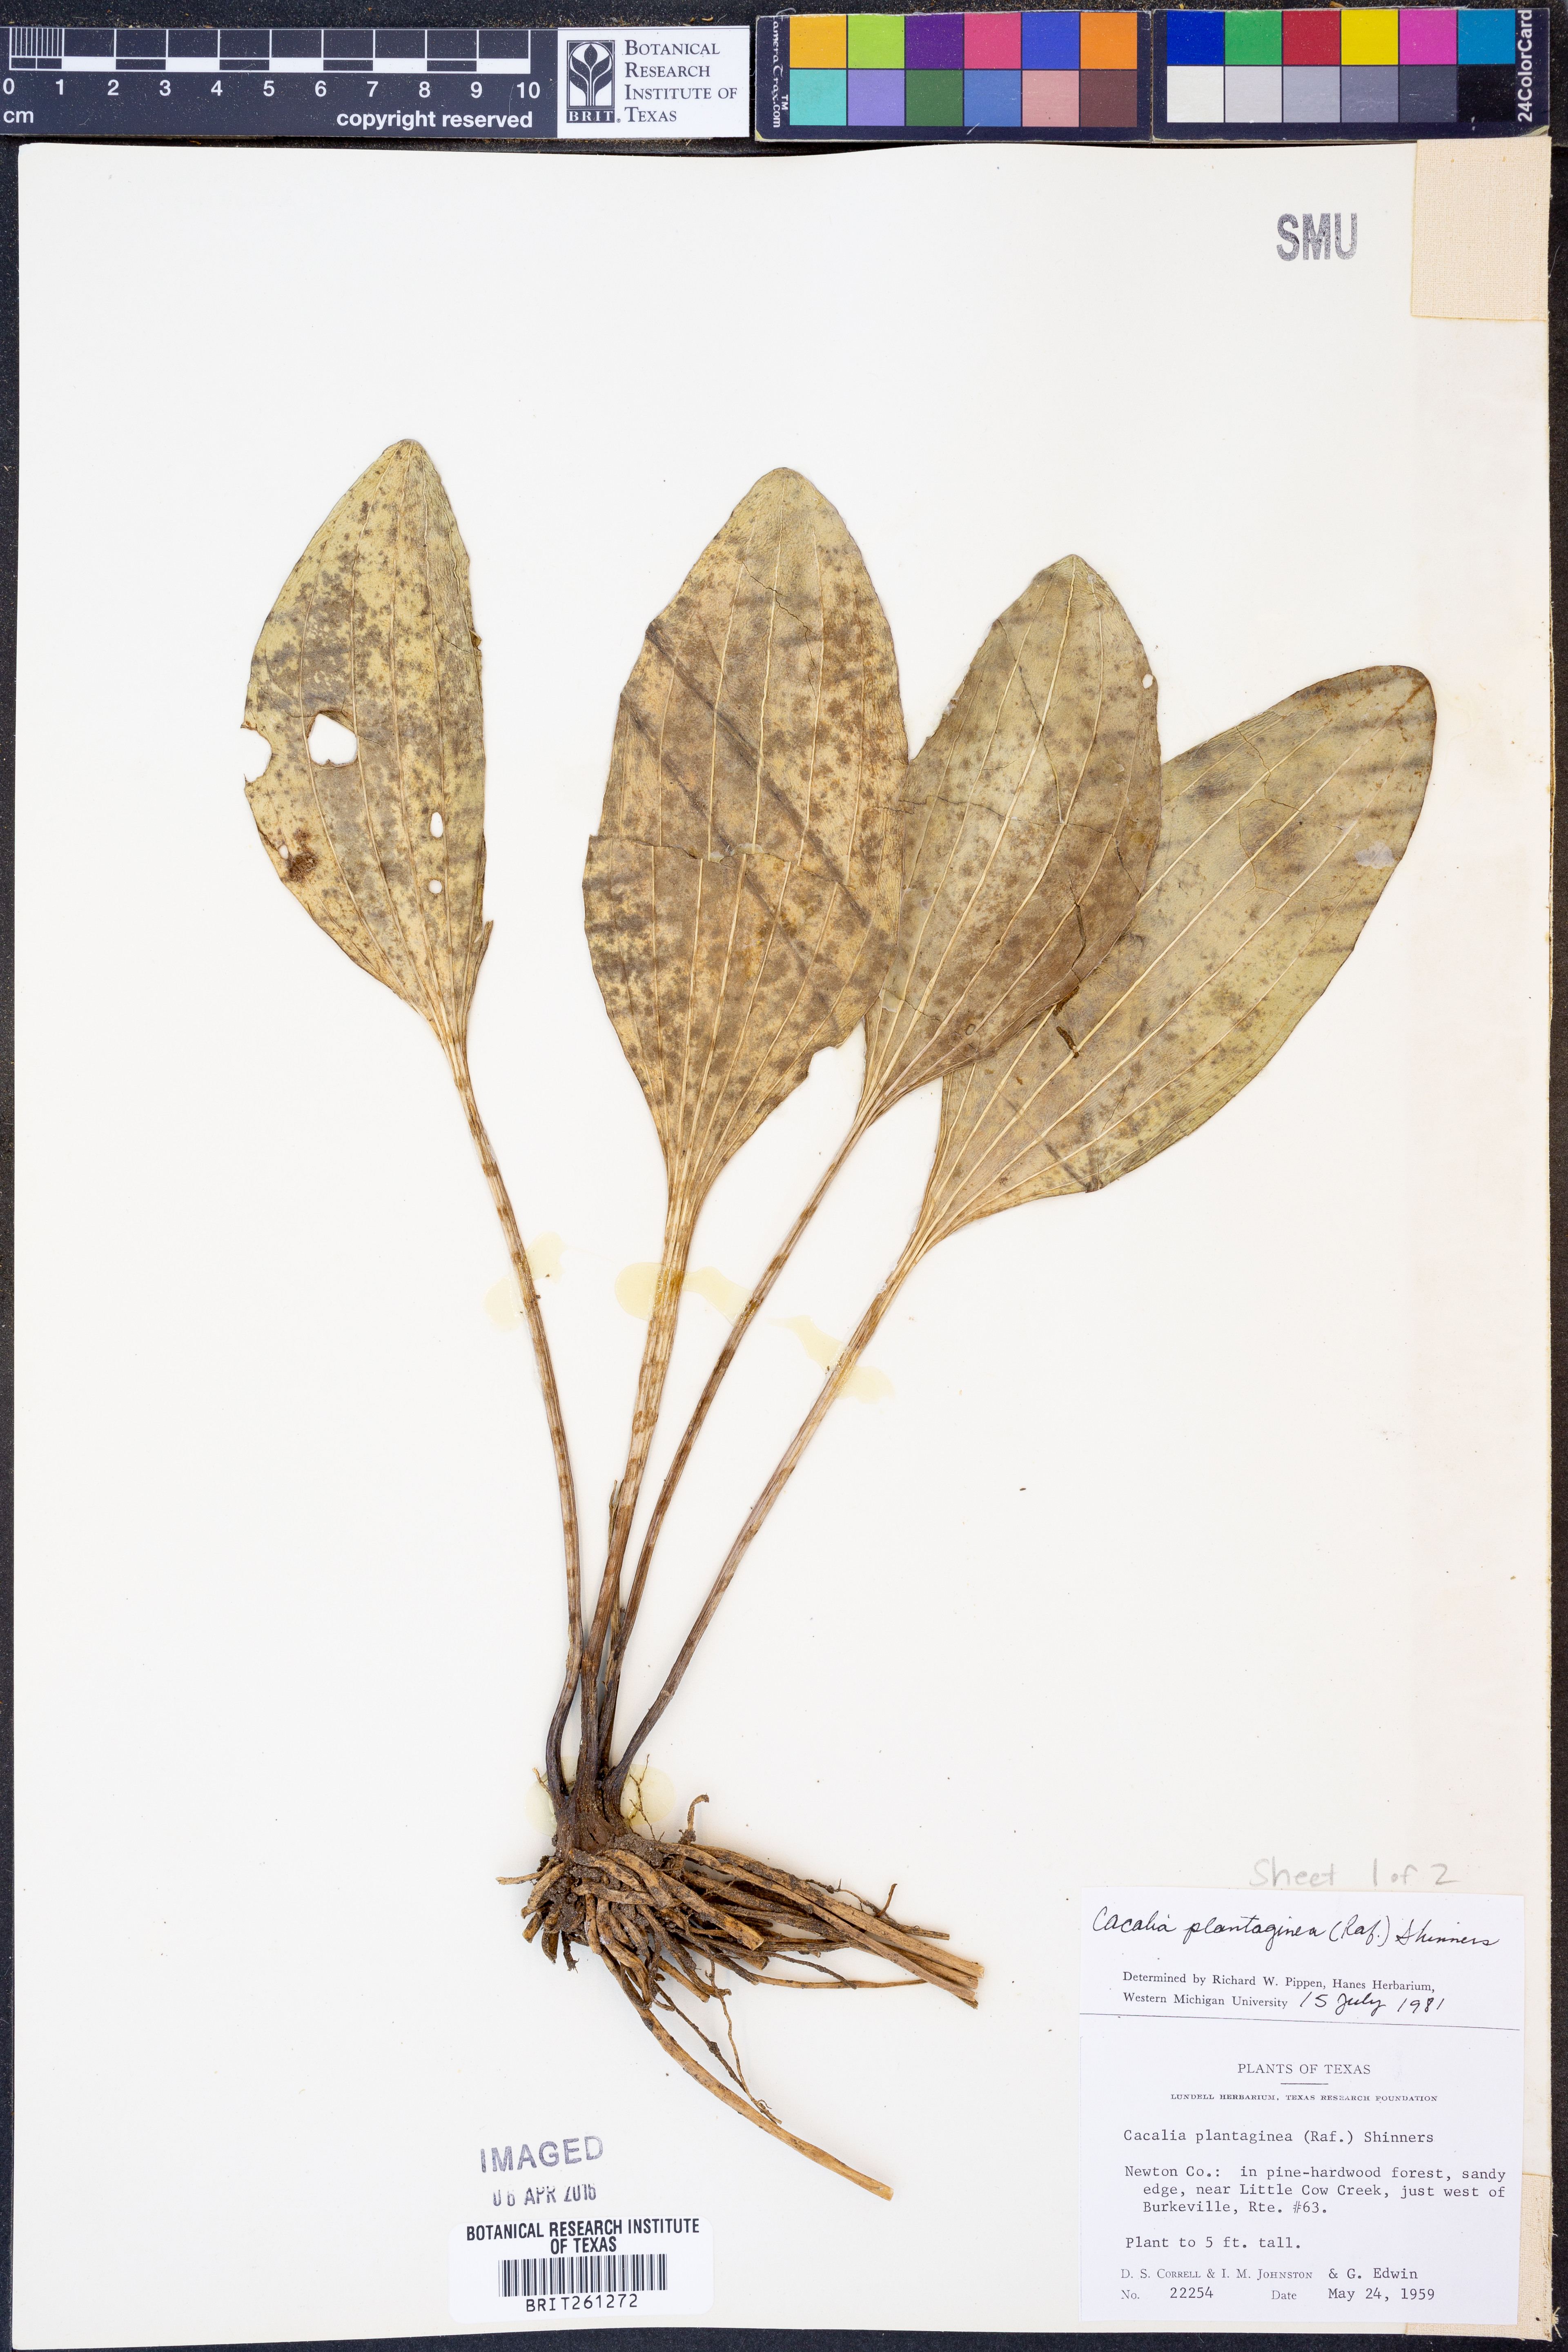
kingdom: Plantae
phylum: Tracheophyta
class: Magnoliopsida
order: Asterales
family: Asteraceae
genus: Arnoglossum
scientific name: Arnoglossum plantagineum
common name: Groove-stemmed indian-plantain
